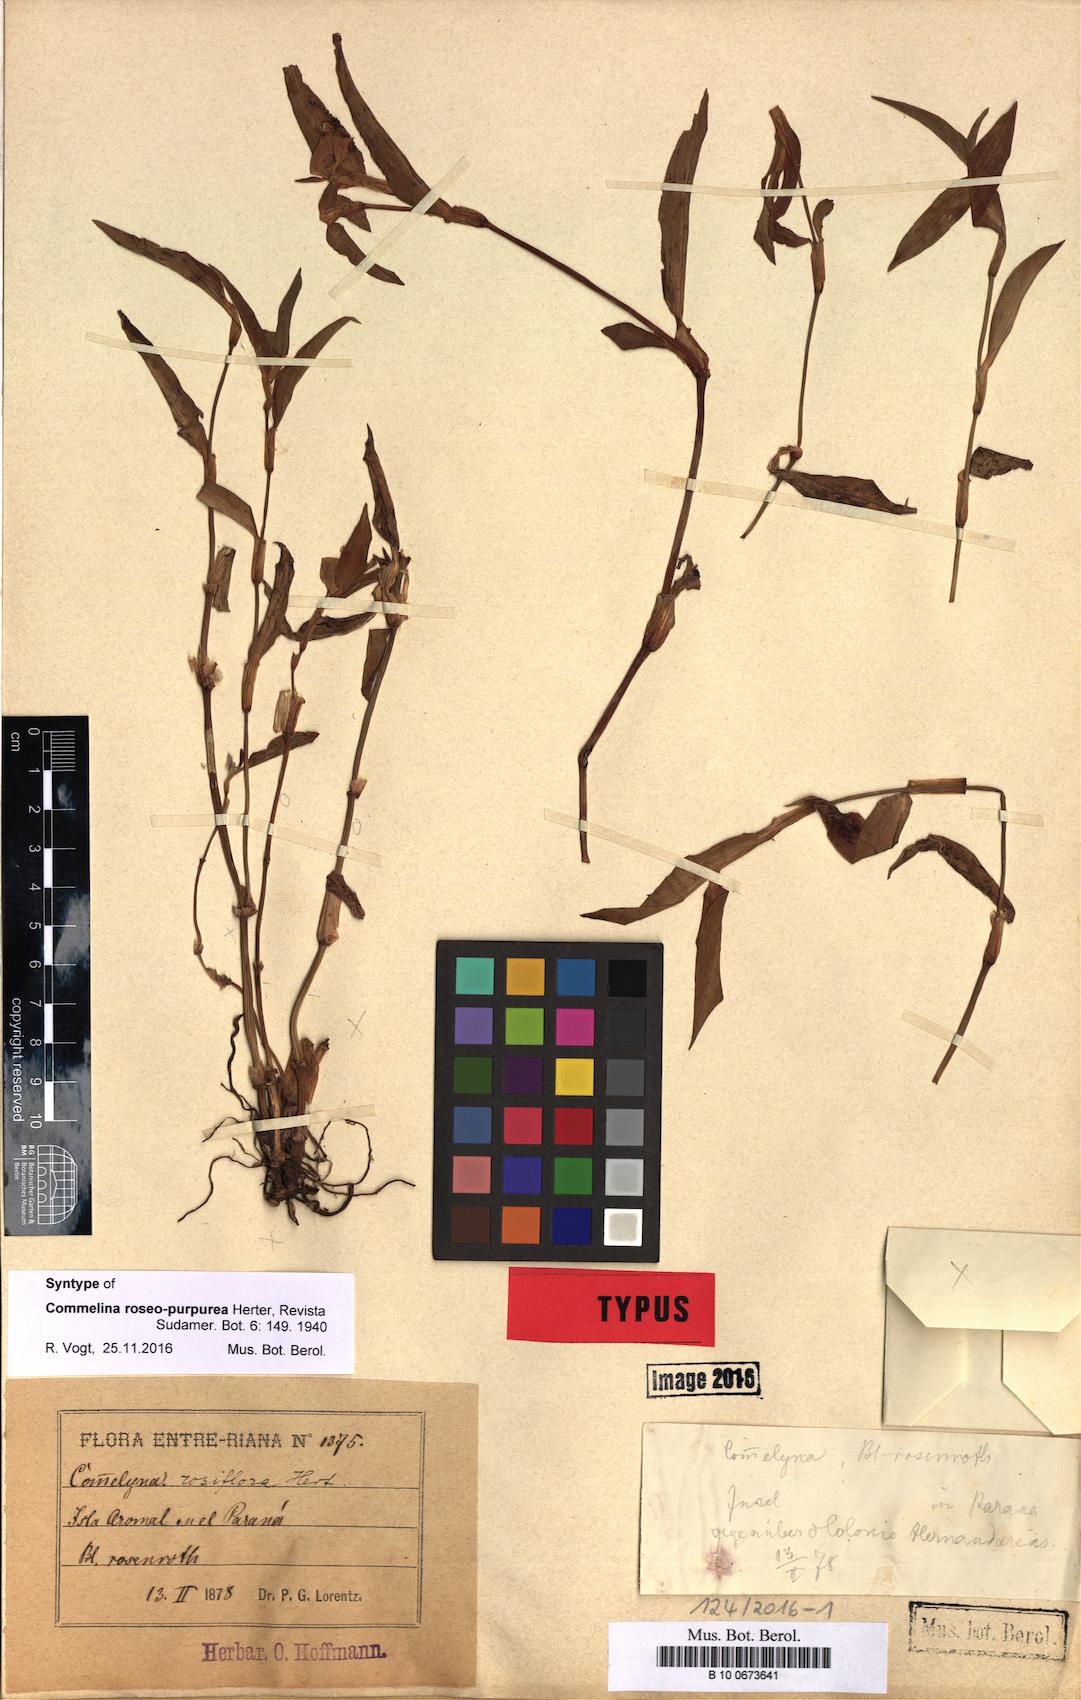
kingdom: Plantae
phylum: Tracheophyta
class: Liliopsida
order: Commelinales
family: Commelinaceae
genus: Commelina
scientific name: Commelina erecta
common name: Blousel blommetjie
